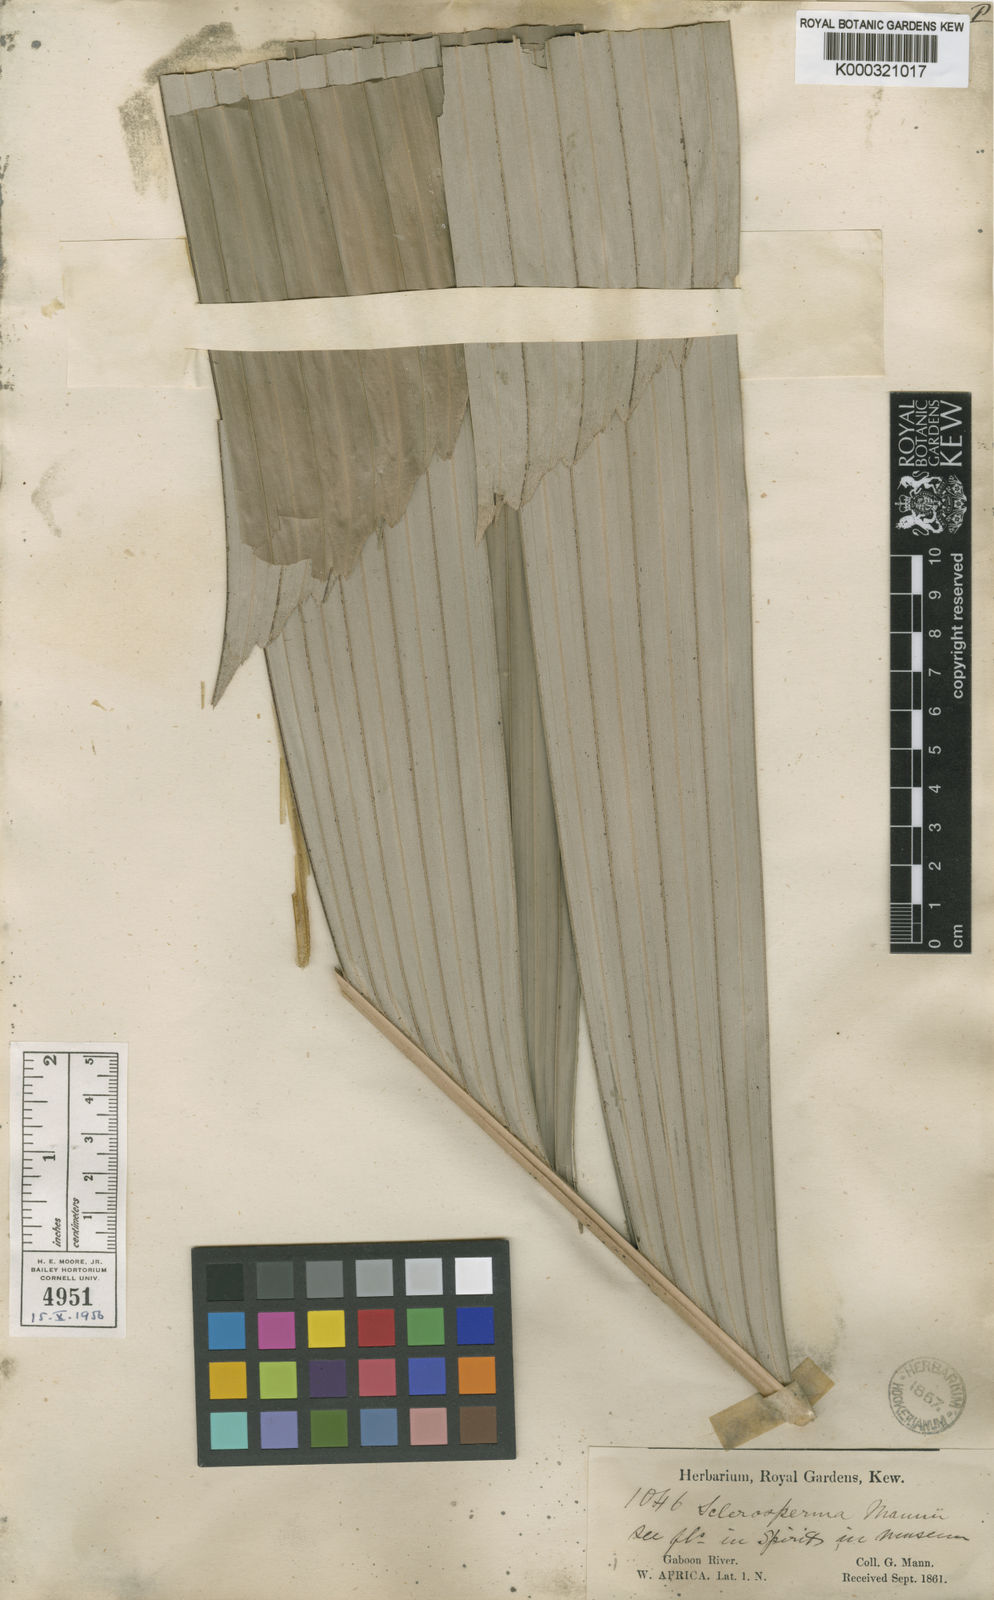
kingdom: Plantae
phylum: Tracheophyta
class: Liliopsida
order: Arecales
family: Arecaceae
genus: Sclerosperma
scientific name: Sclerosperma mannii
